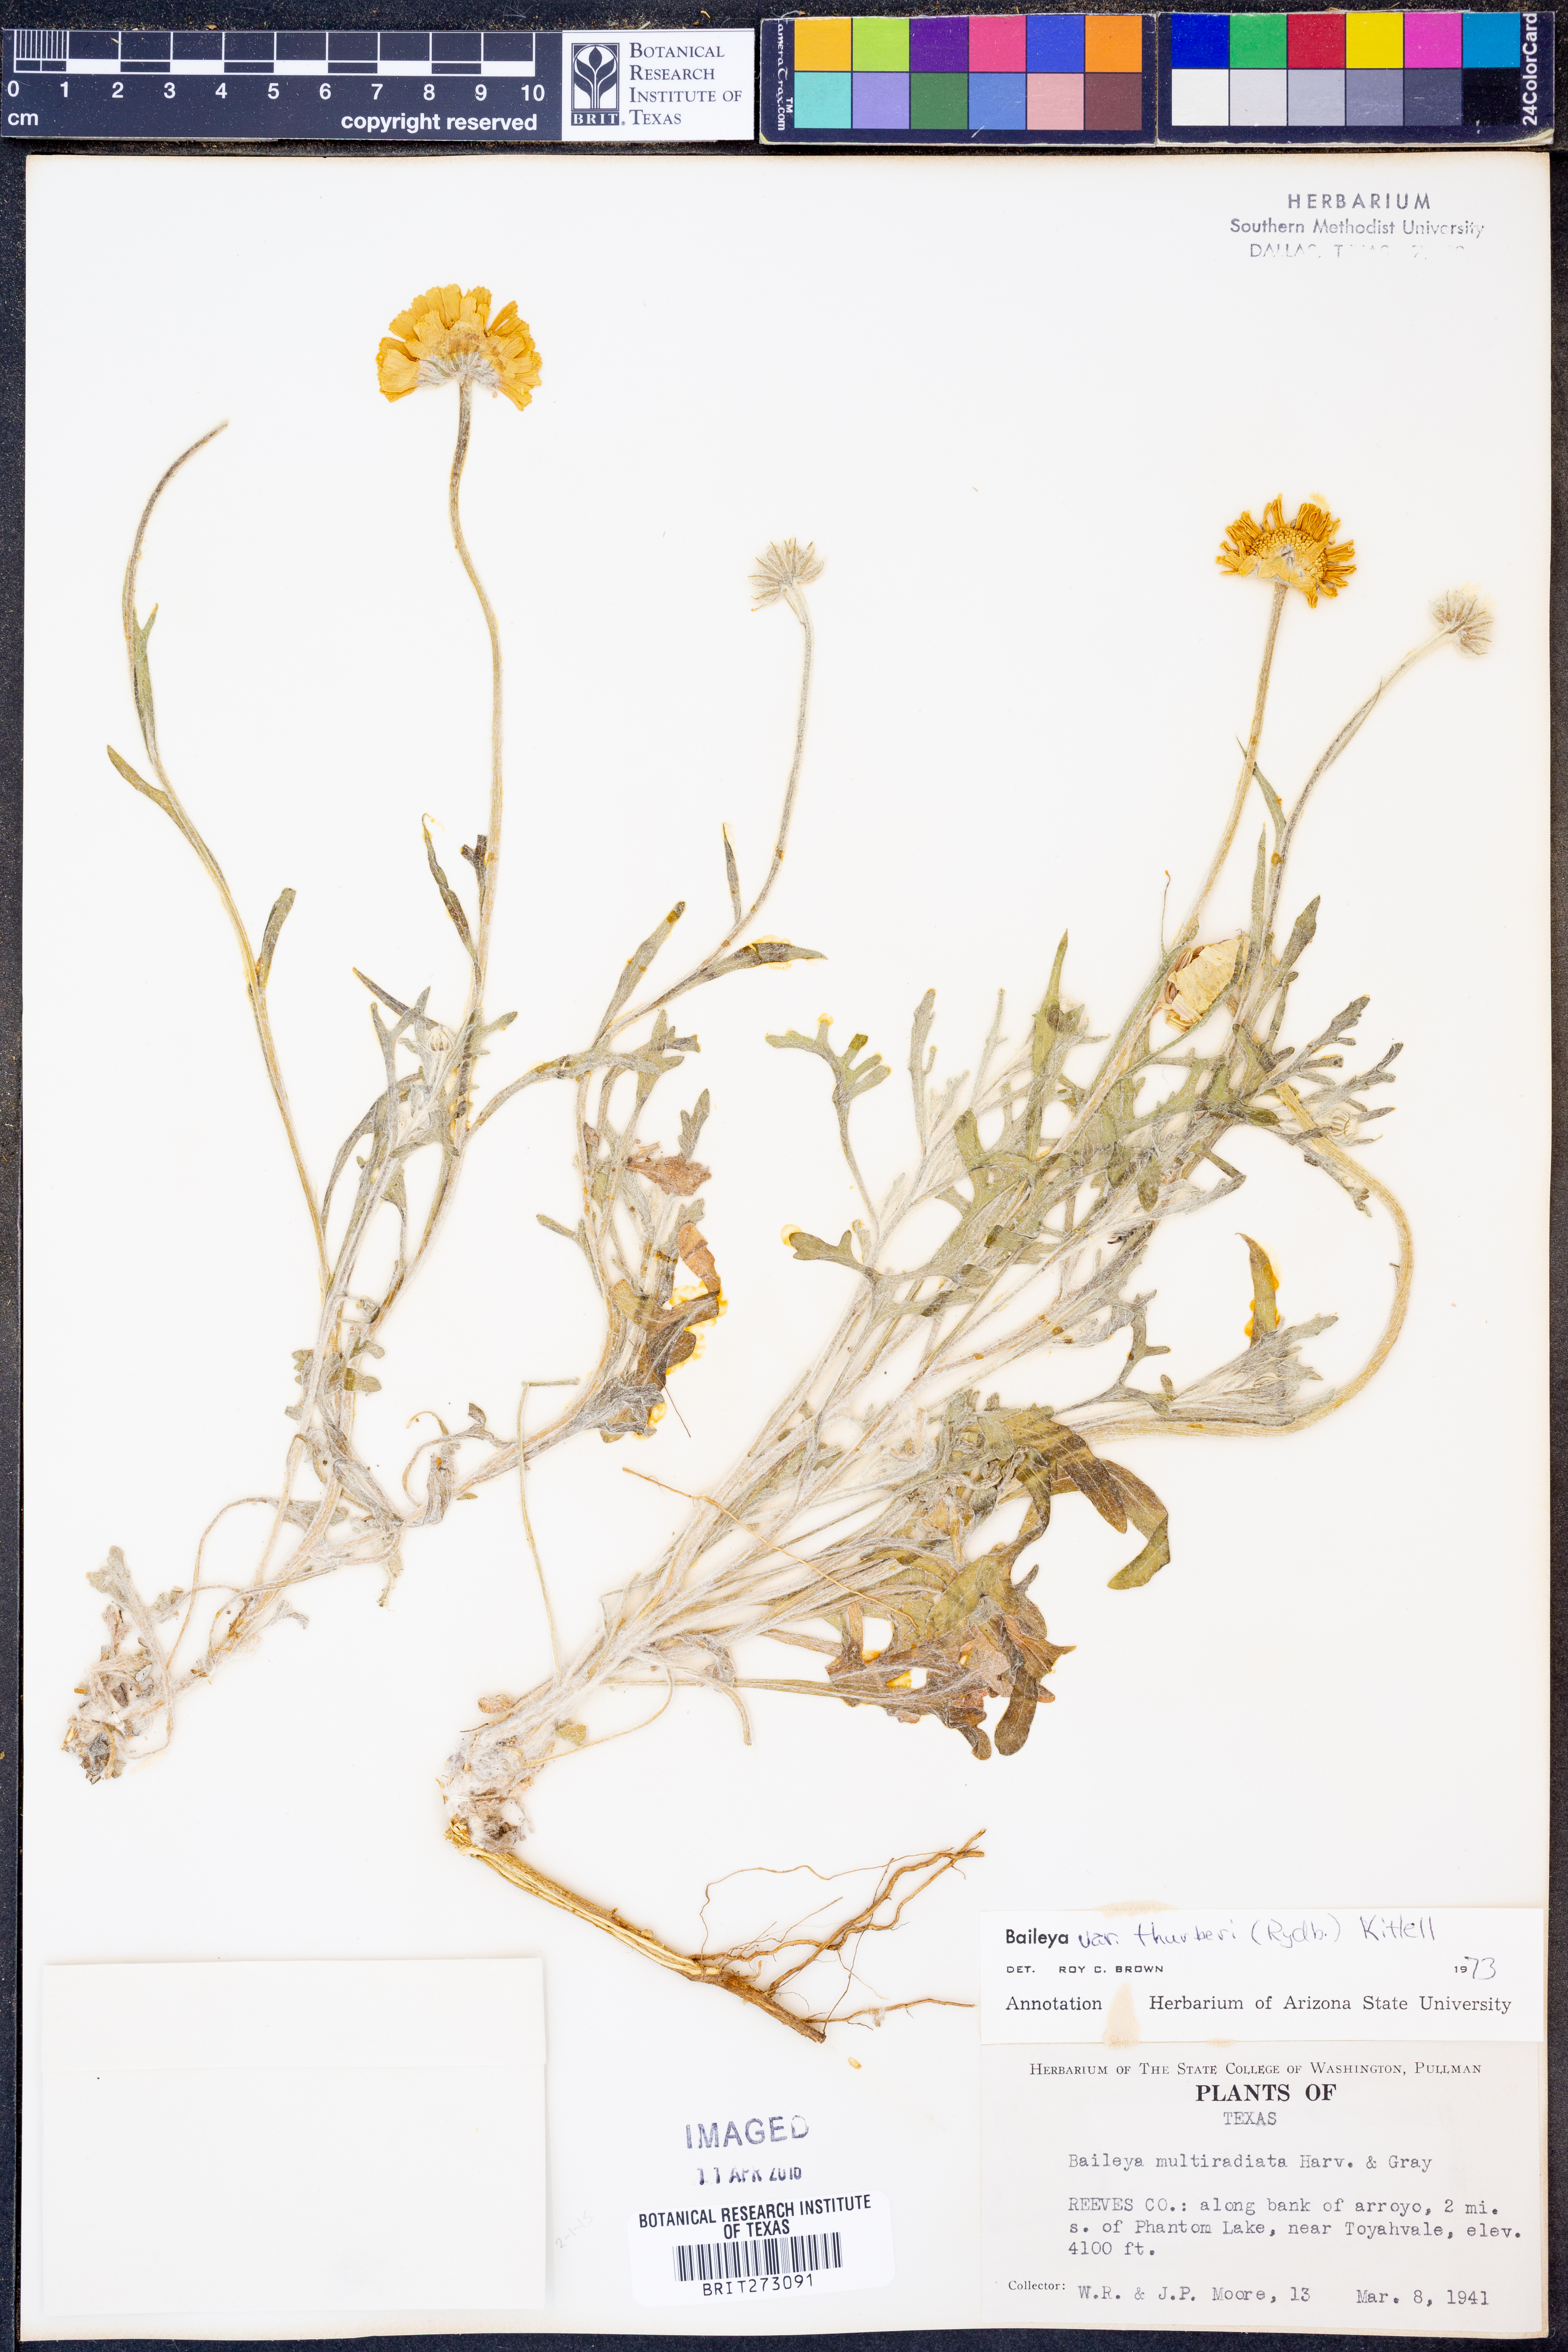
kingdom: Plantae
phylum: Tracheophyta
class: Magnoliopsida
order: Asterales
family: Asteraceae
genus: Baileya
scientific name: Baileya multiradiata
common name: Desert-marigold
